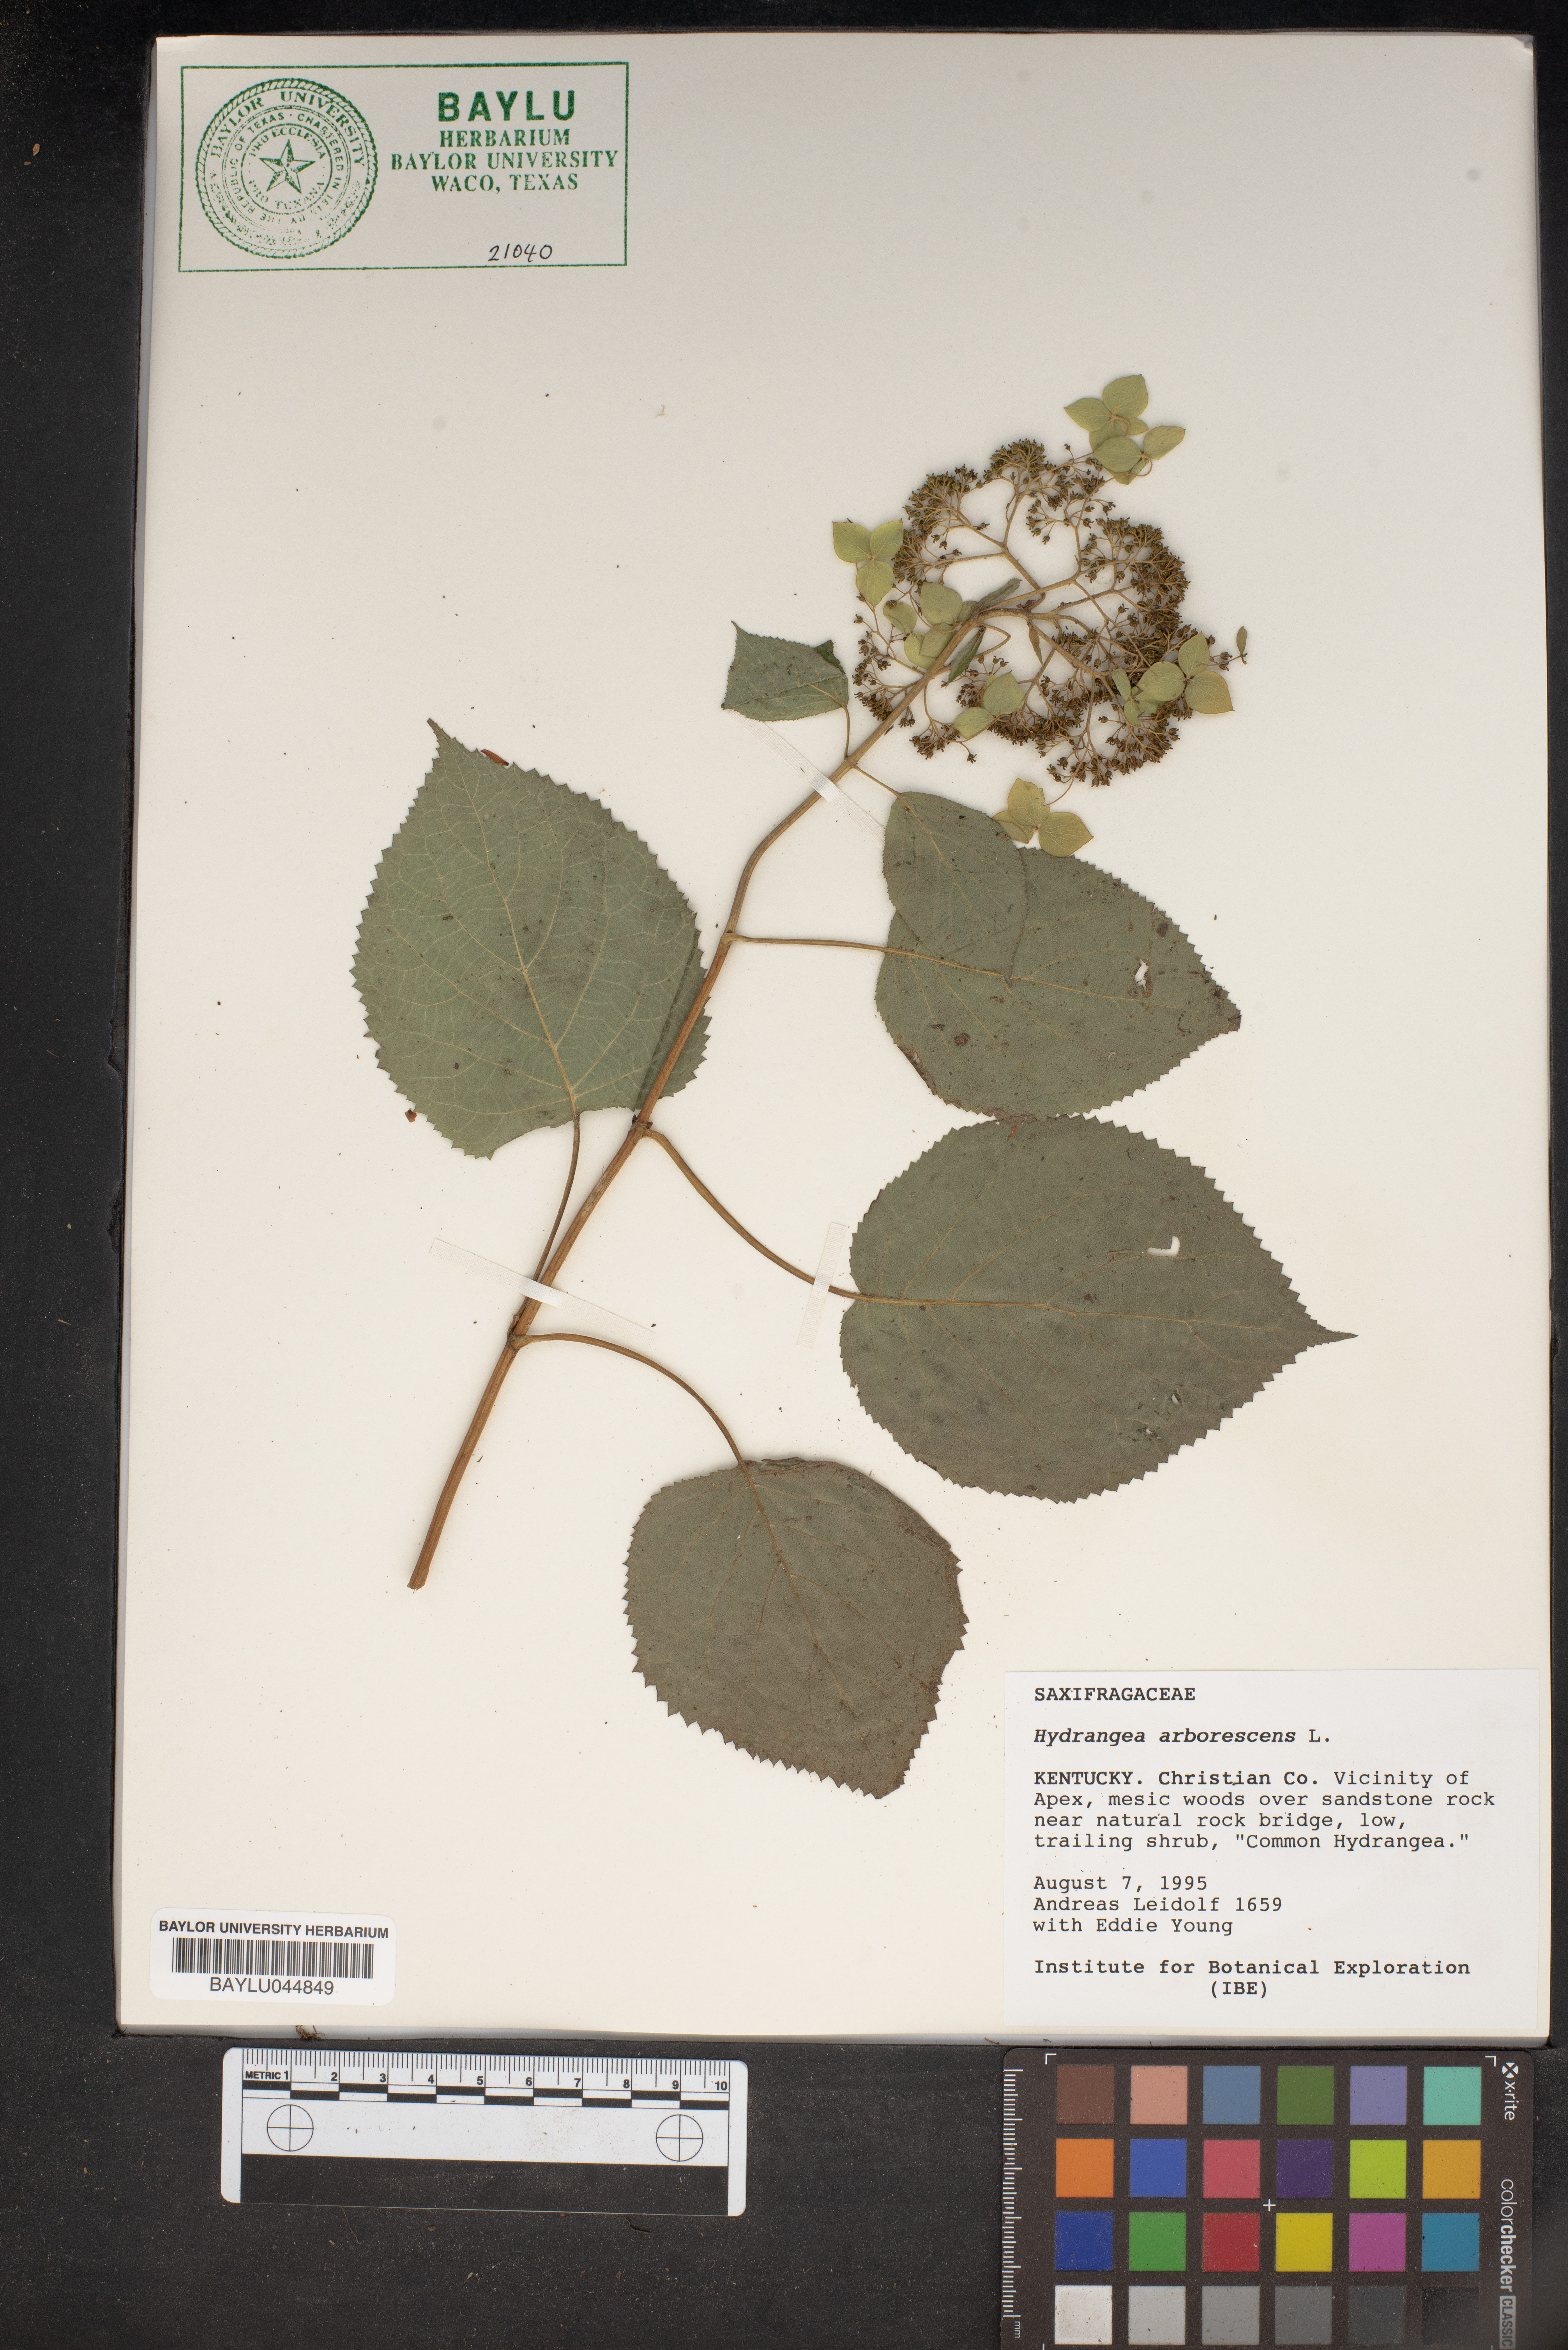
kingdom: Plantae
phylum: Tracheophyta
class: Magnoliopsida
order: Cornales
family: Hydrangeaceae
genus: Hydrangea
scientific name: Hydrangea arborescens
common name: Sevenbark
